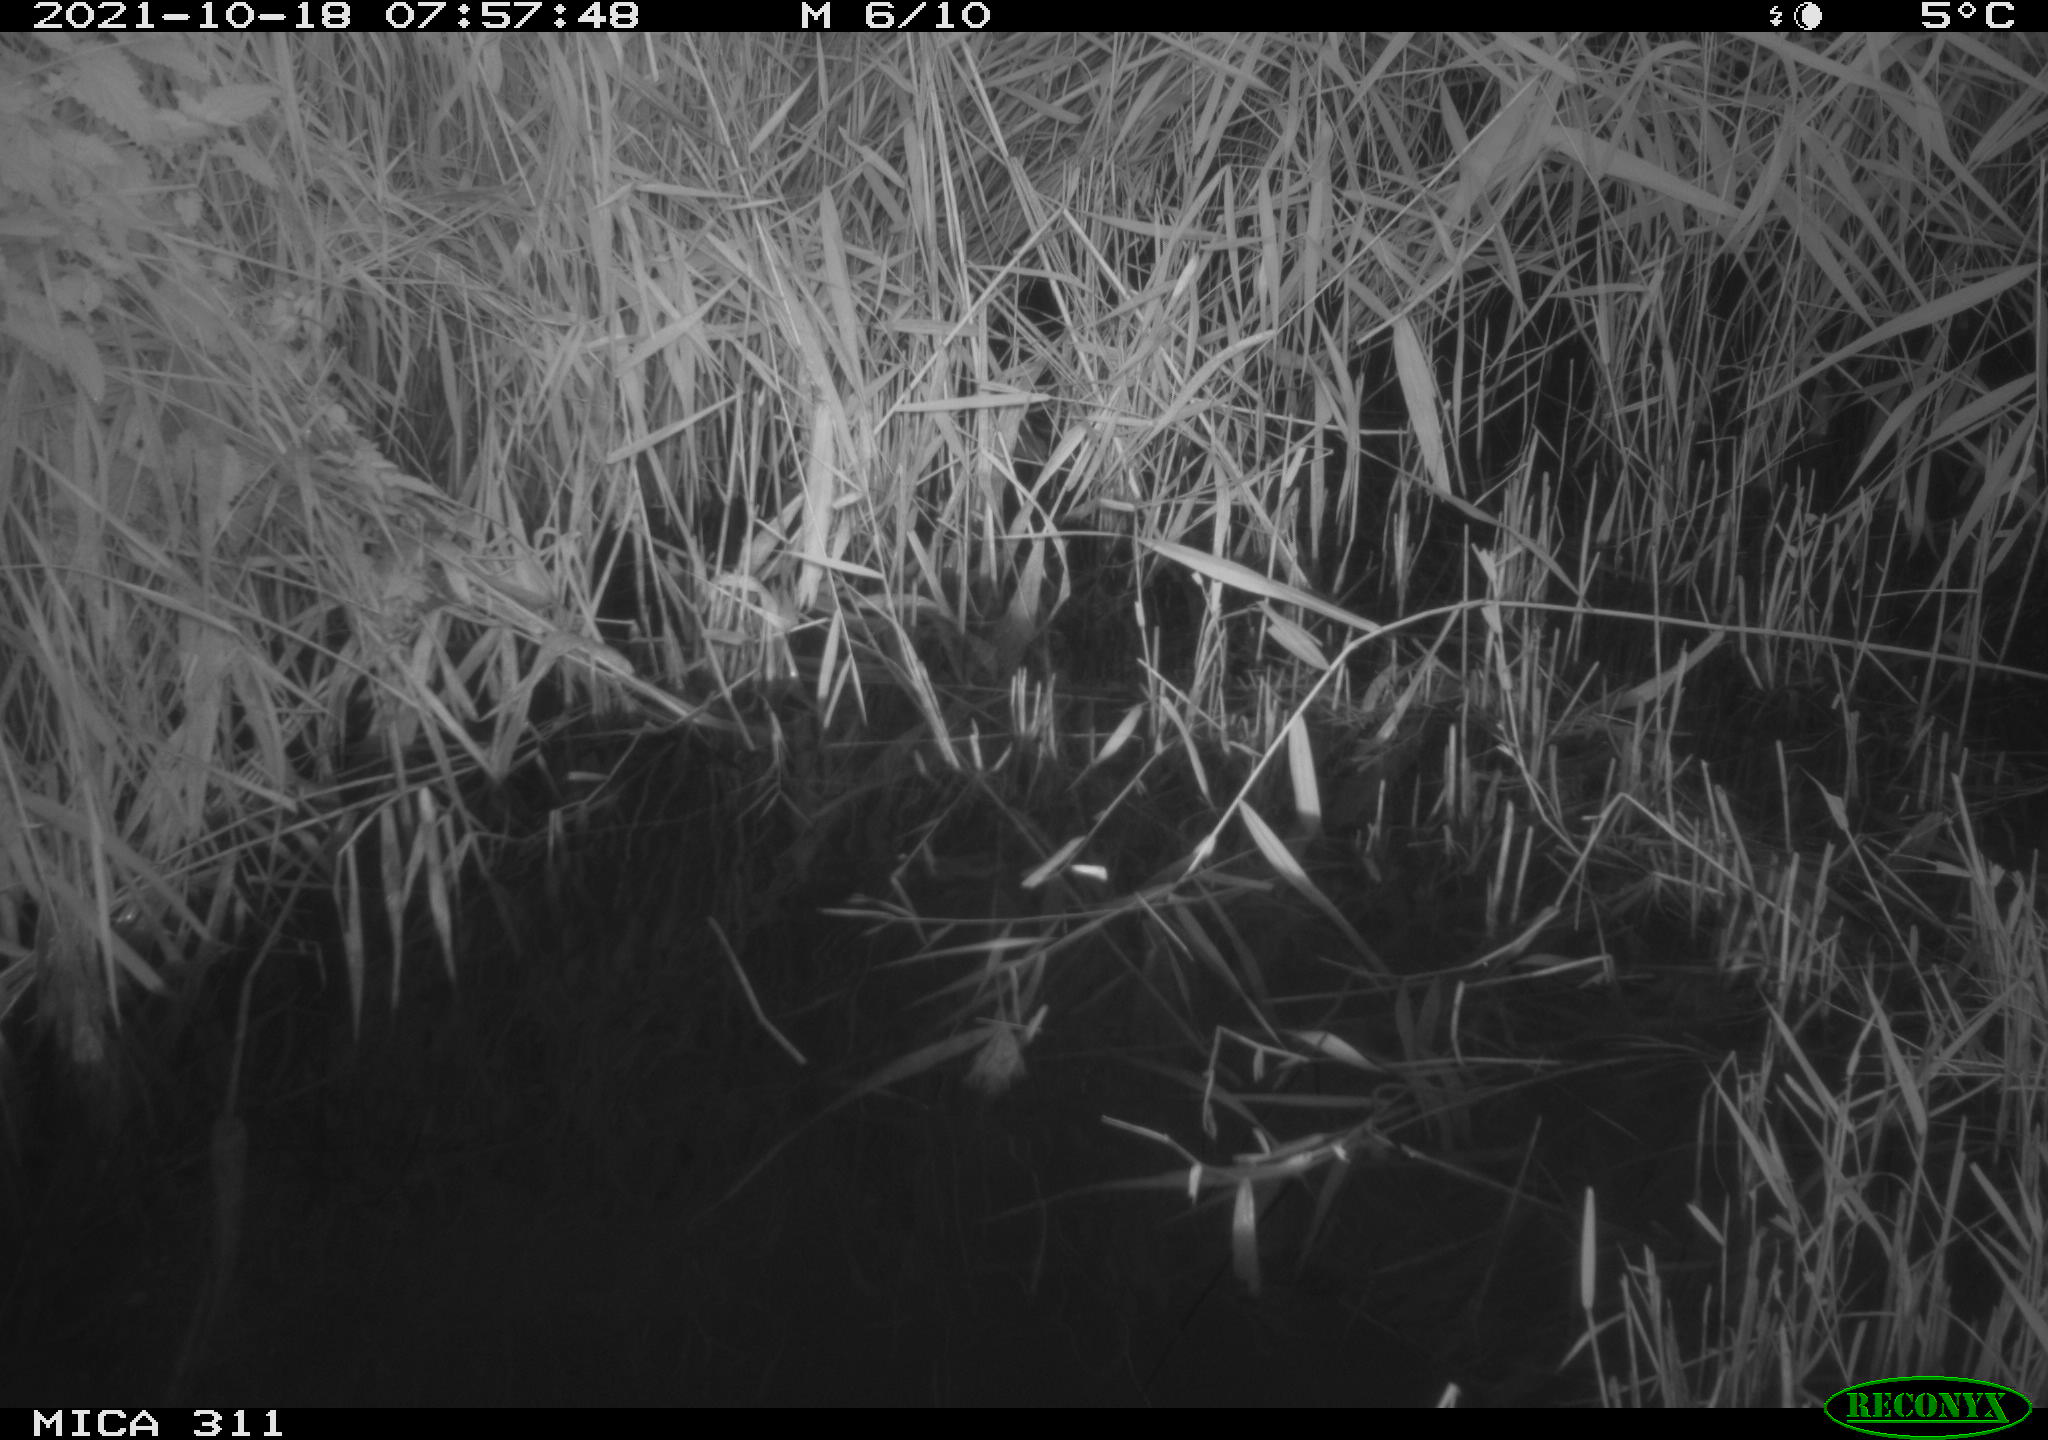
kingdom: Animalia
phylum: Chordata
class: Mammalia
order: Rodentia
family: Muridae
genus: Rattus
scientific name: Rattus norvegicus
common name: Brown rat
